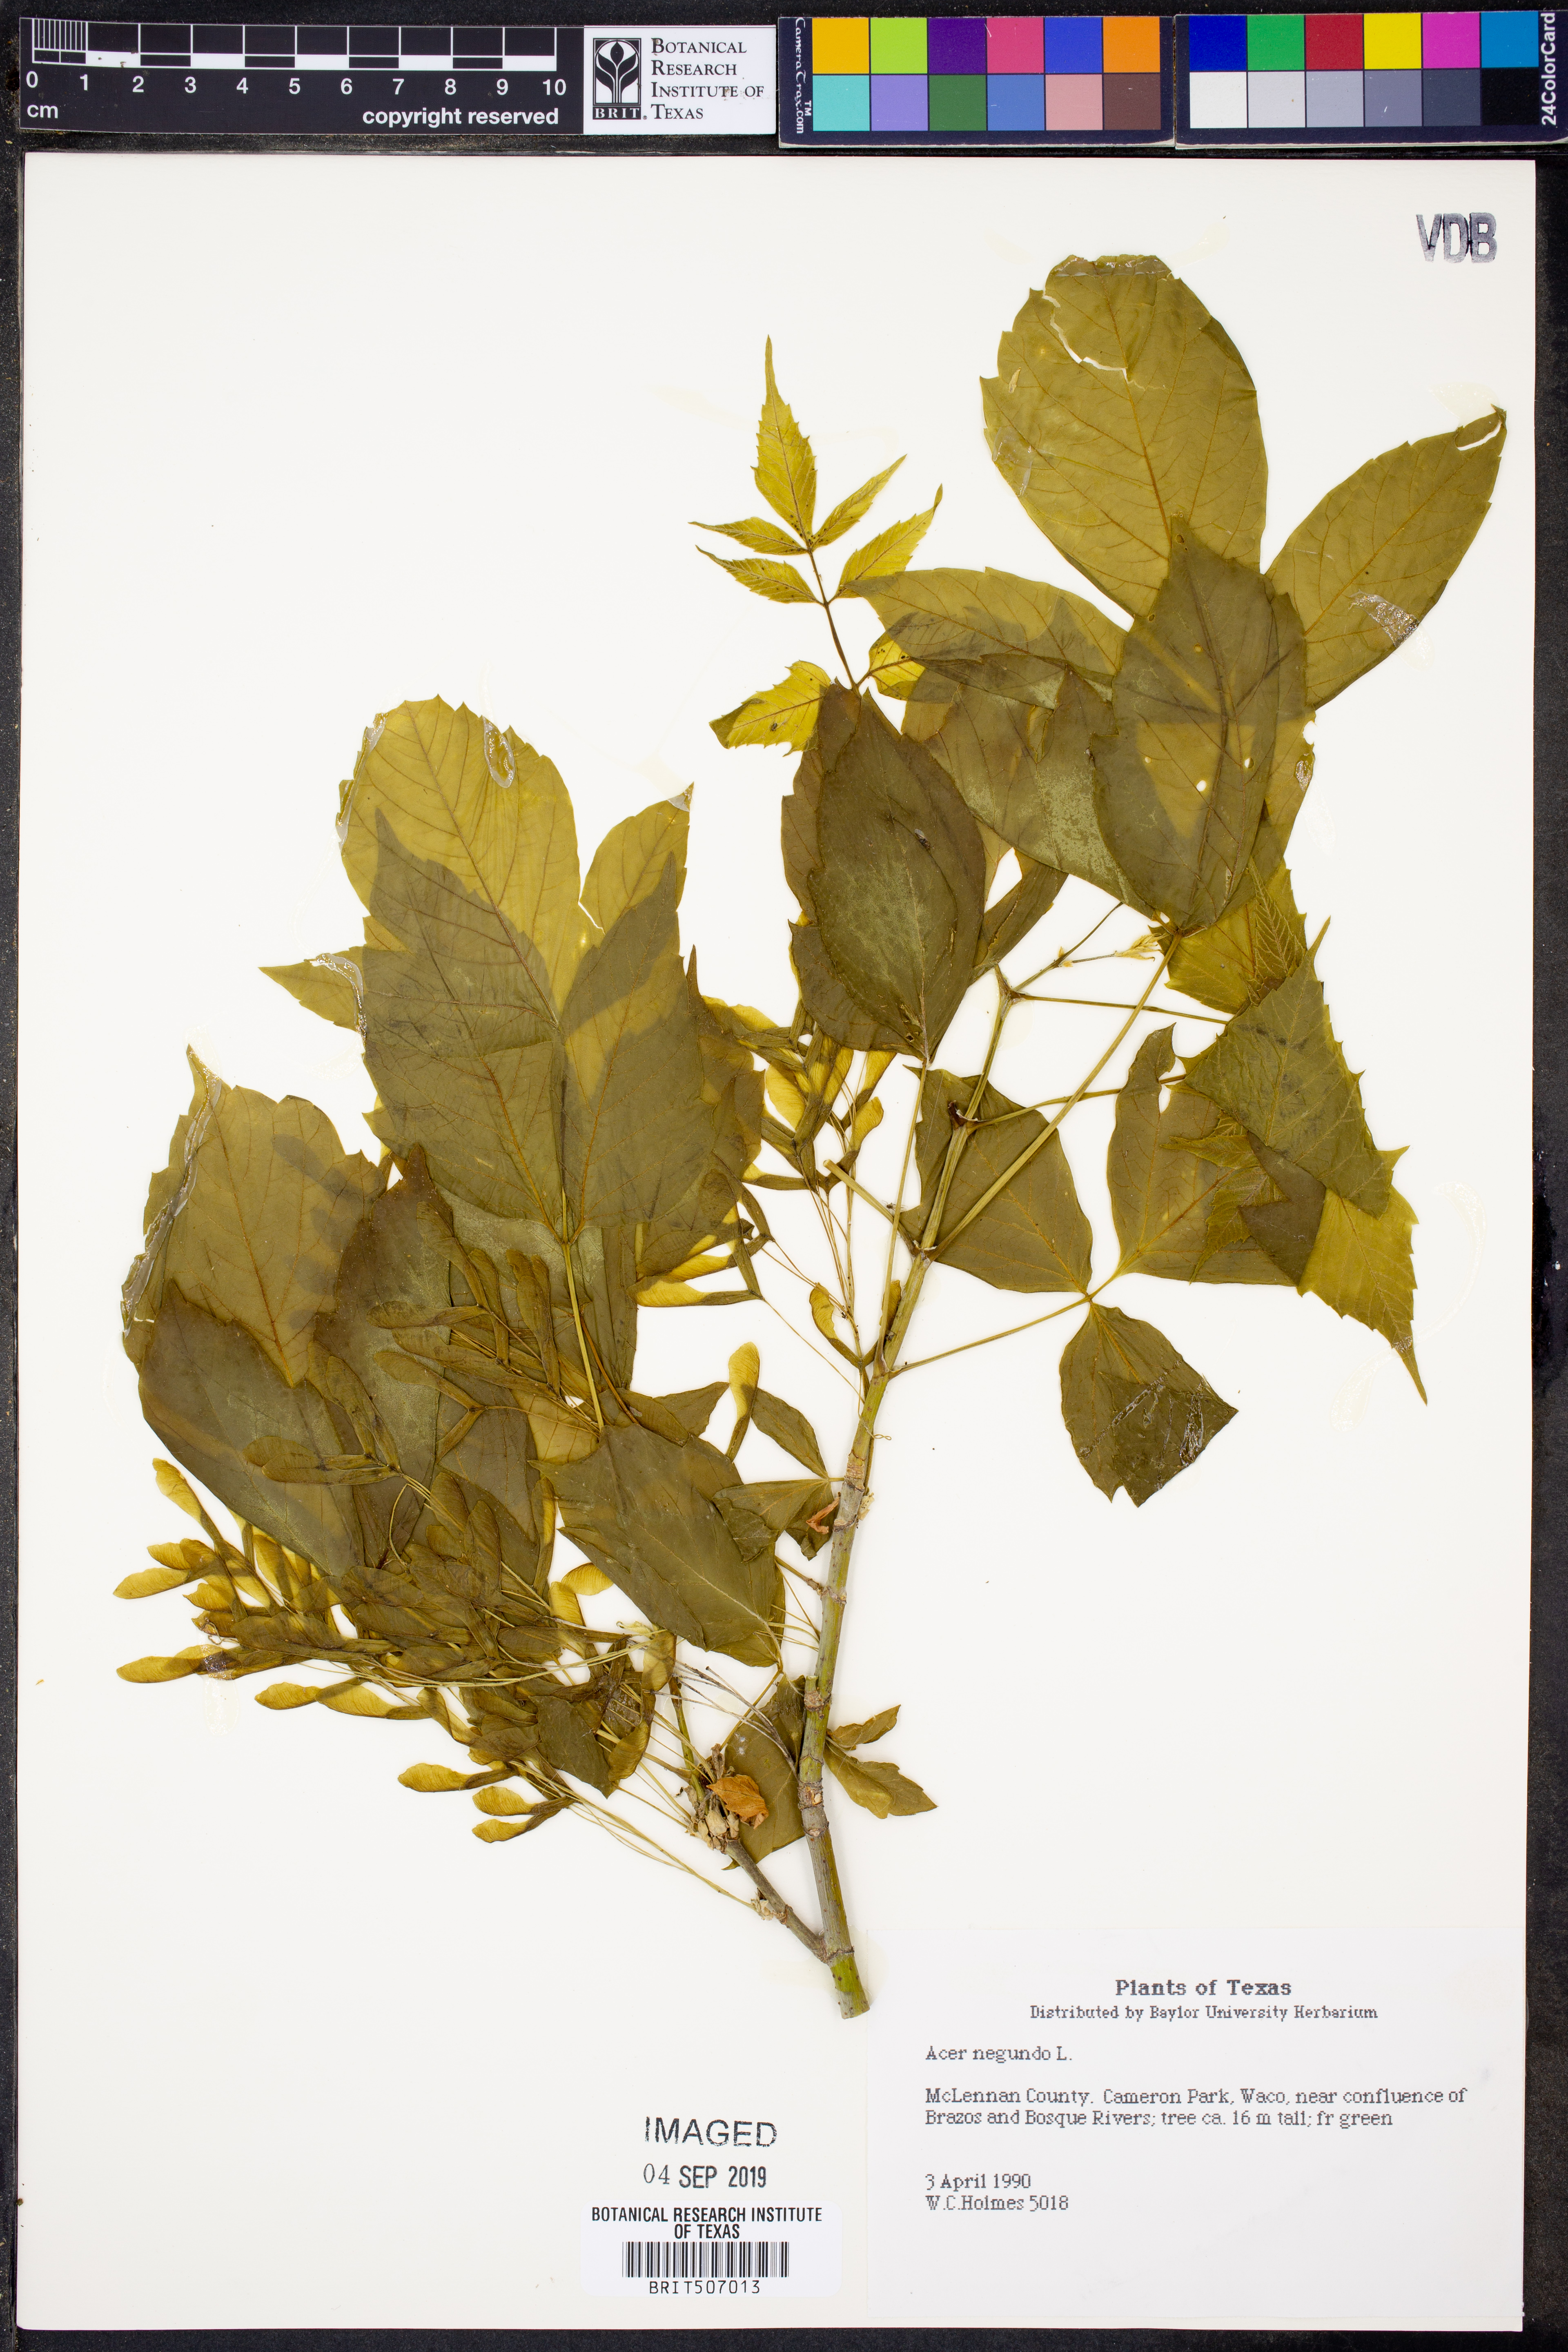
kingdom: Plantae
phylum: Tracheophyta
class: Magnoliopsida
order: Sapindales
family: Sapindaceae
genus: Acer
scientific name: Acer negundo
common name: Ashleaf maple
